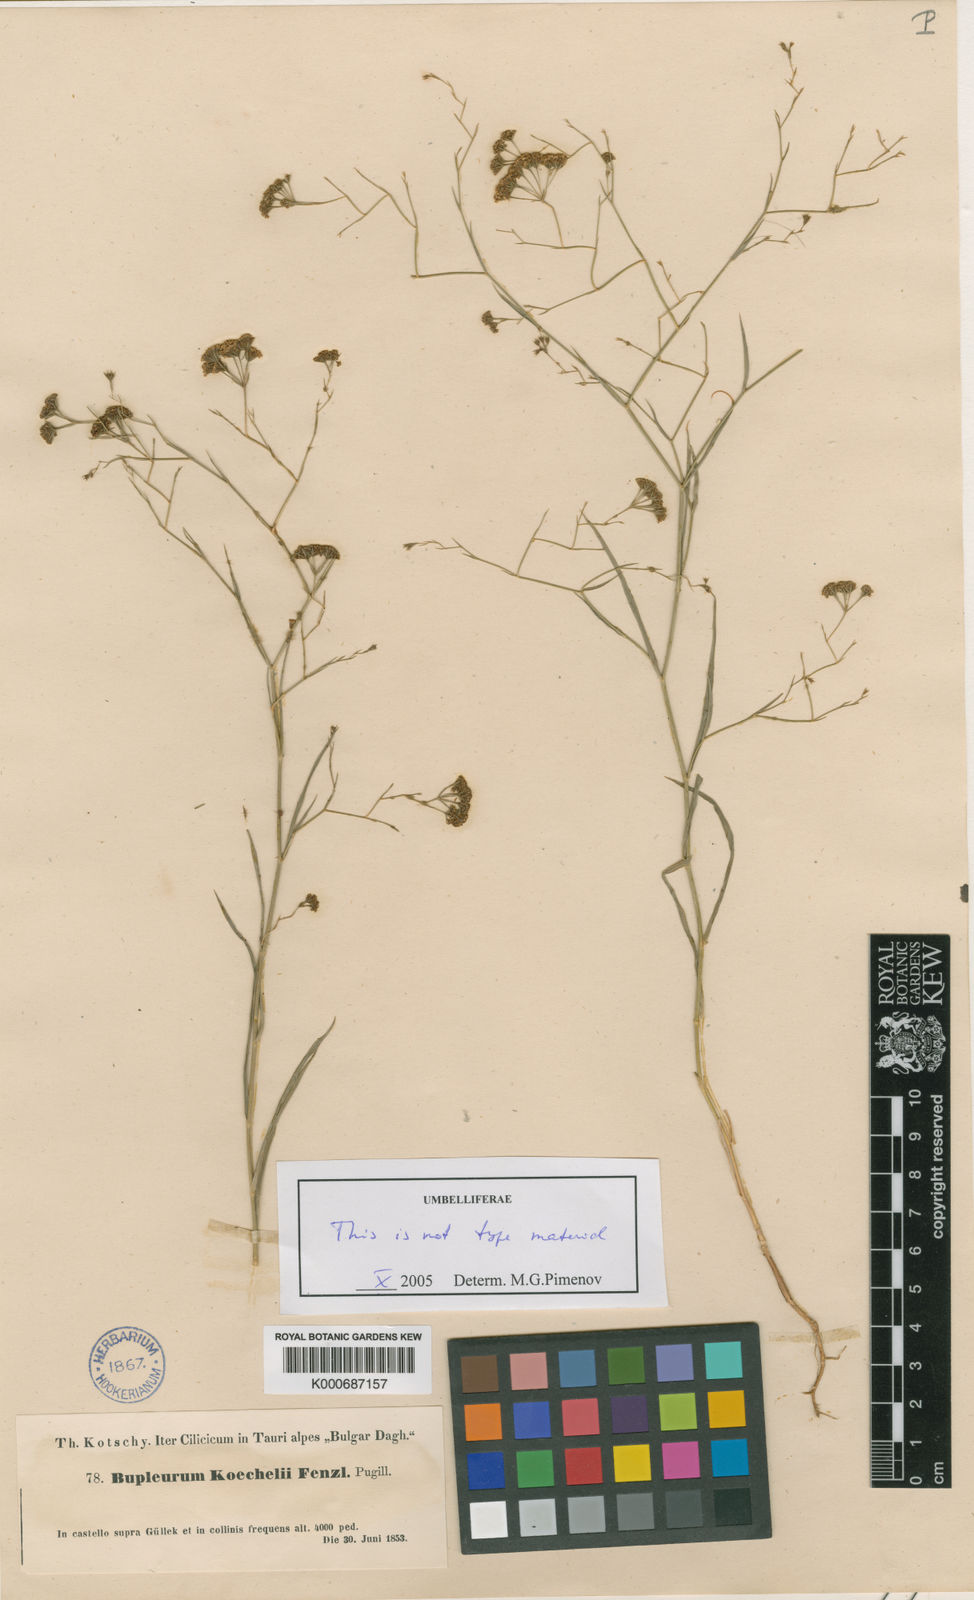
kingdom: Plantae
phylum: Tracheophyta
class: Magnoliopsida
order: Apiales
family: Apiaceae
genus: Bupleurum
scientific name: Bupleurum koechelii
